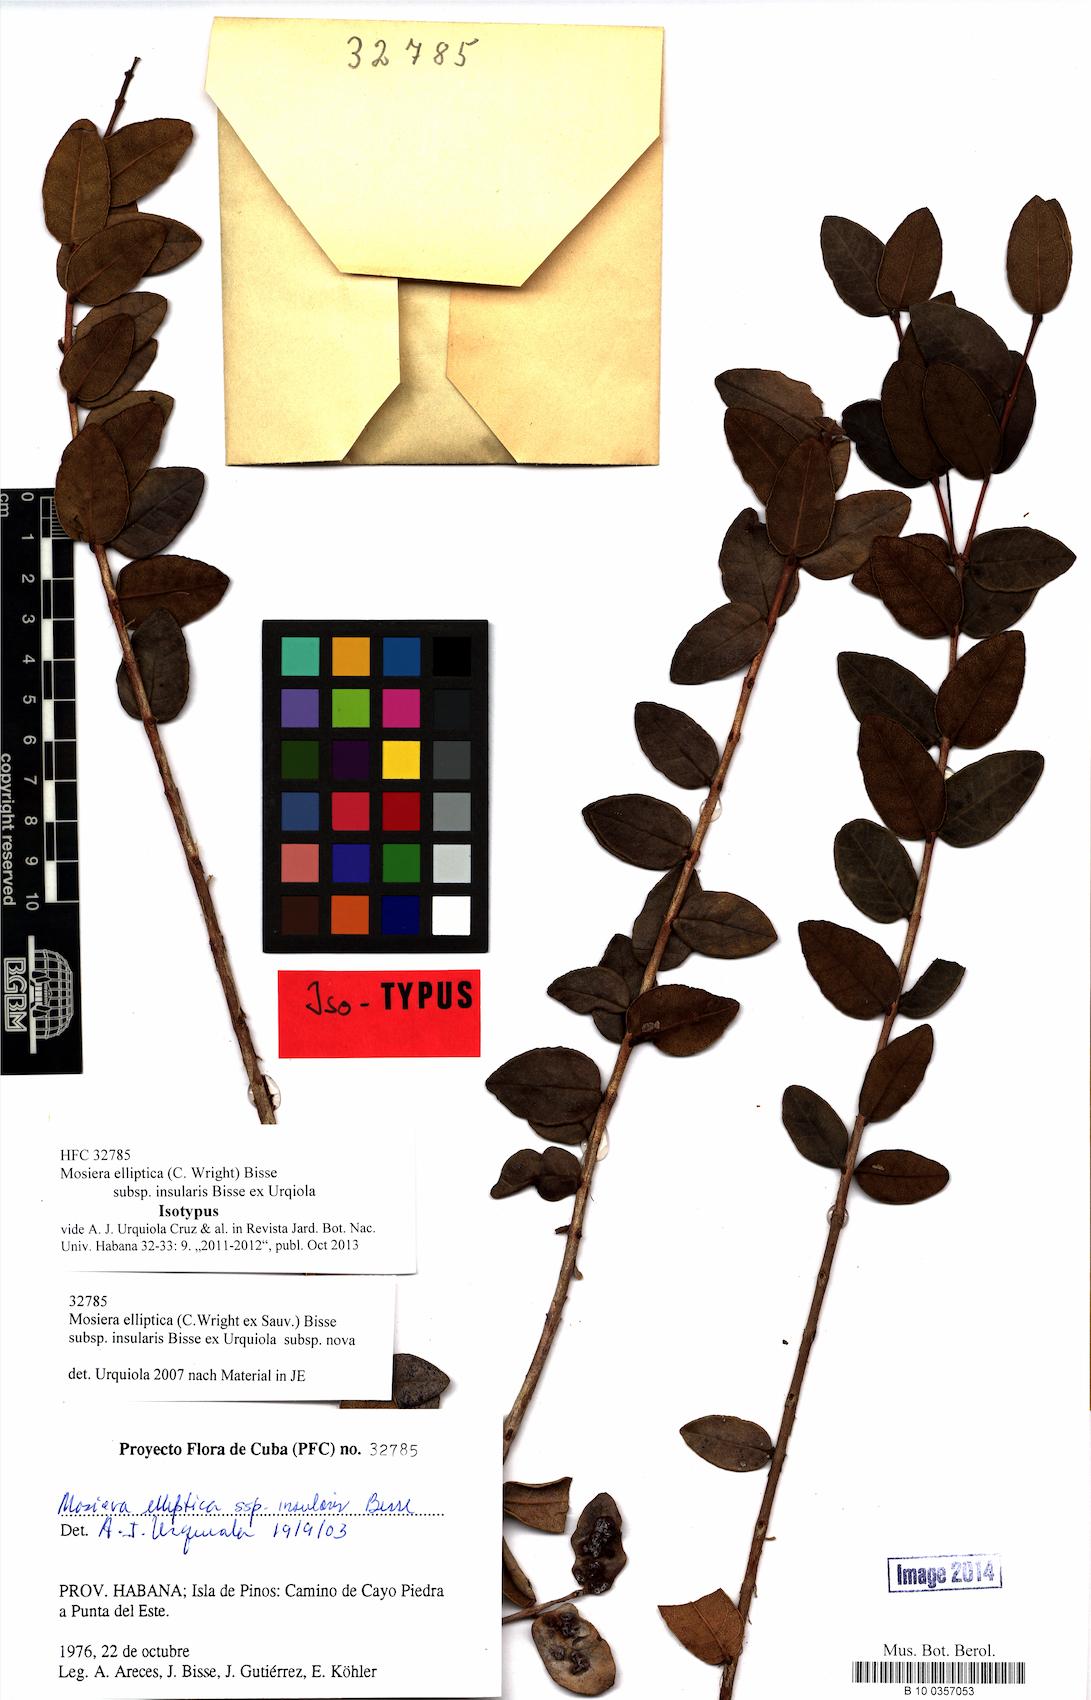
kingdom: Plantae
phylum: Tracheophyta
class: Magnoliopsida
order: Myrtales
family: Myrtaceae
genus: Mosiera
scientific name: Mosiera elliptica
